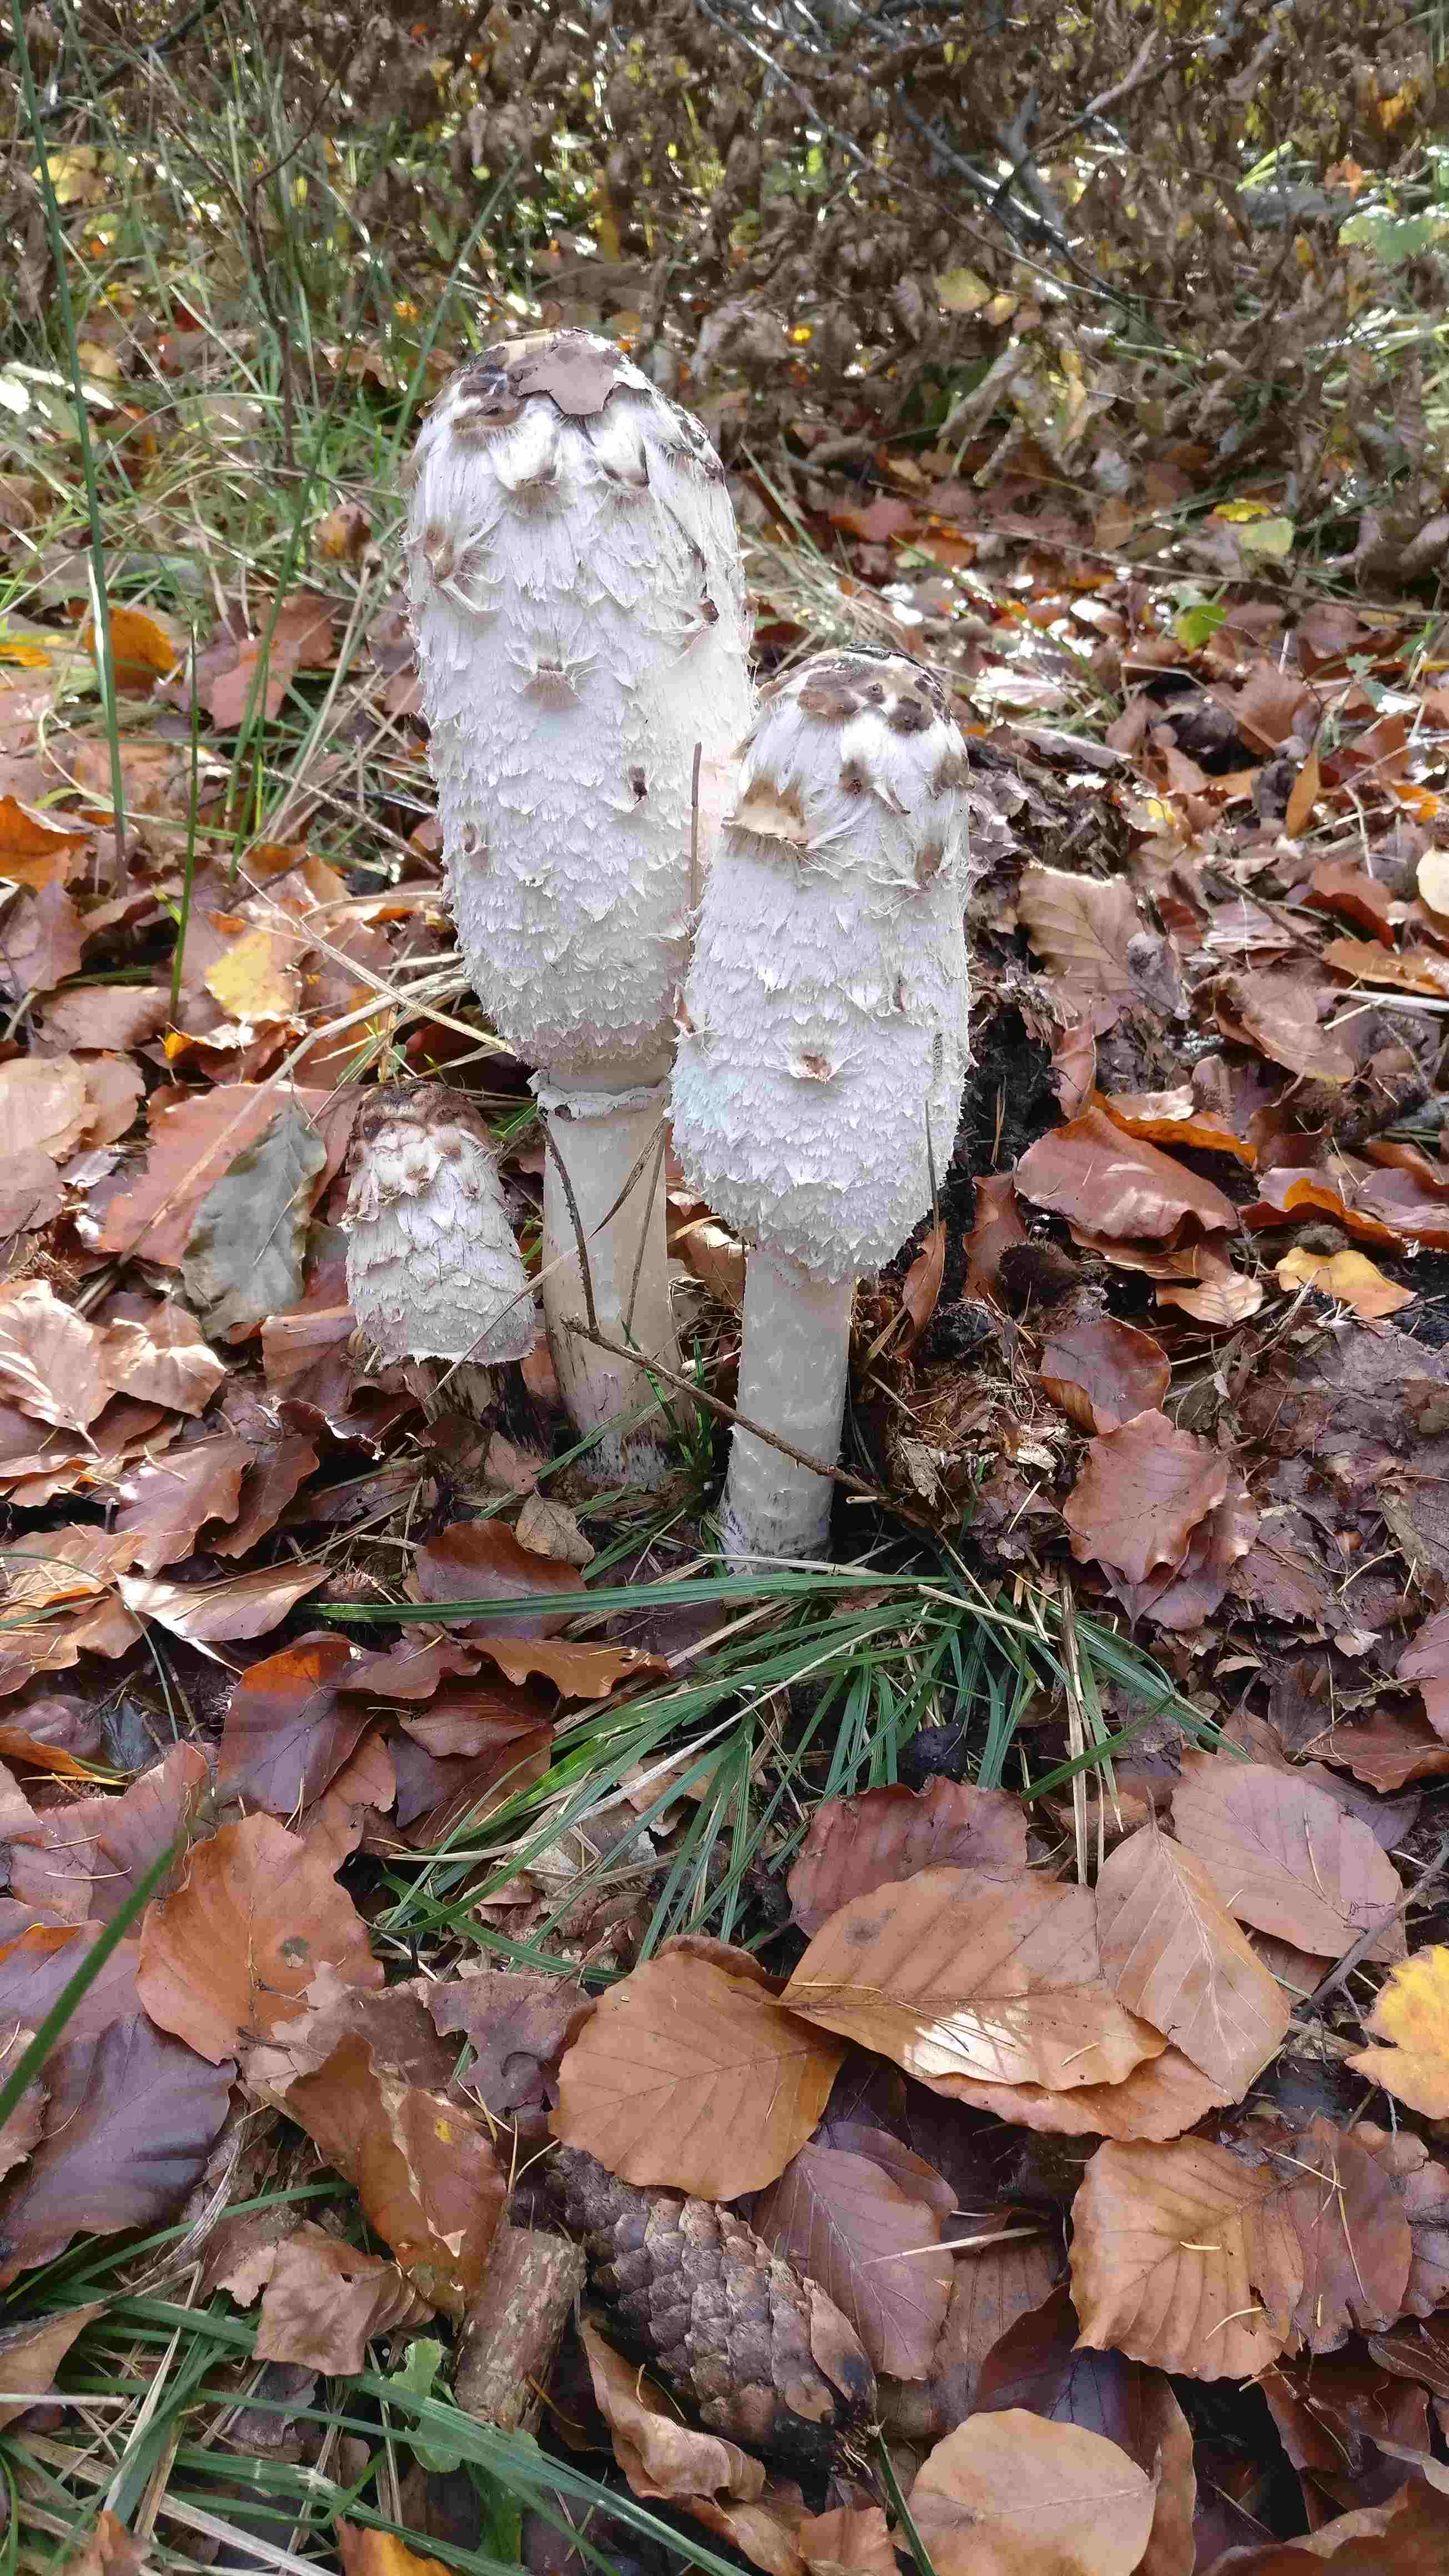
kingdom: Fungi
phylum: Basidiomycota
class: Agaricomycetes
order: Agaricales
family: Agaricaceae
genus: Coprinus
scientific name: Coprinus comatus
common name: stor parykhat
